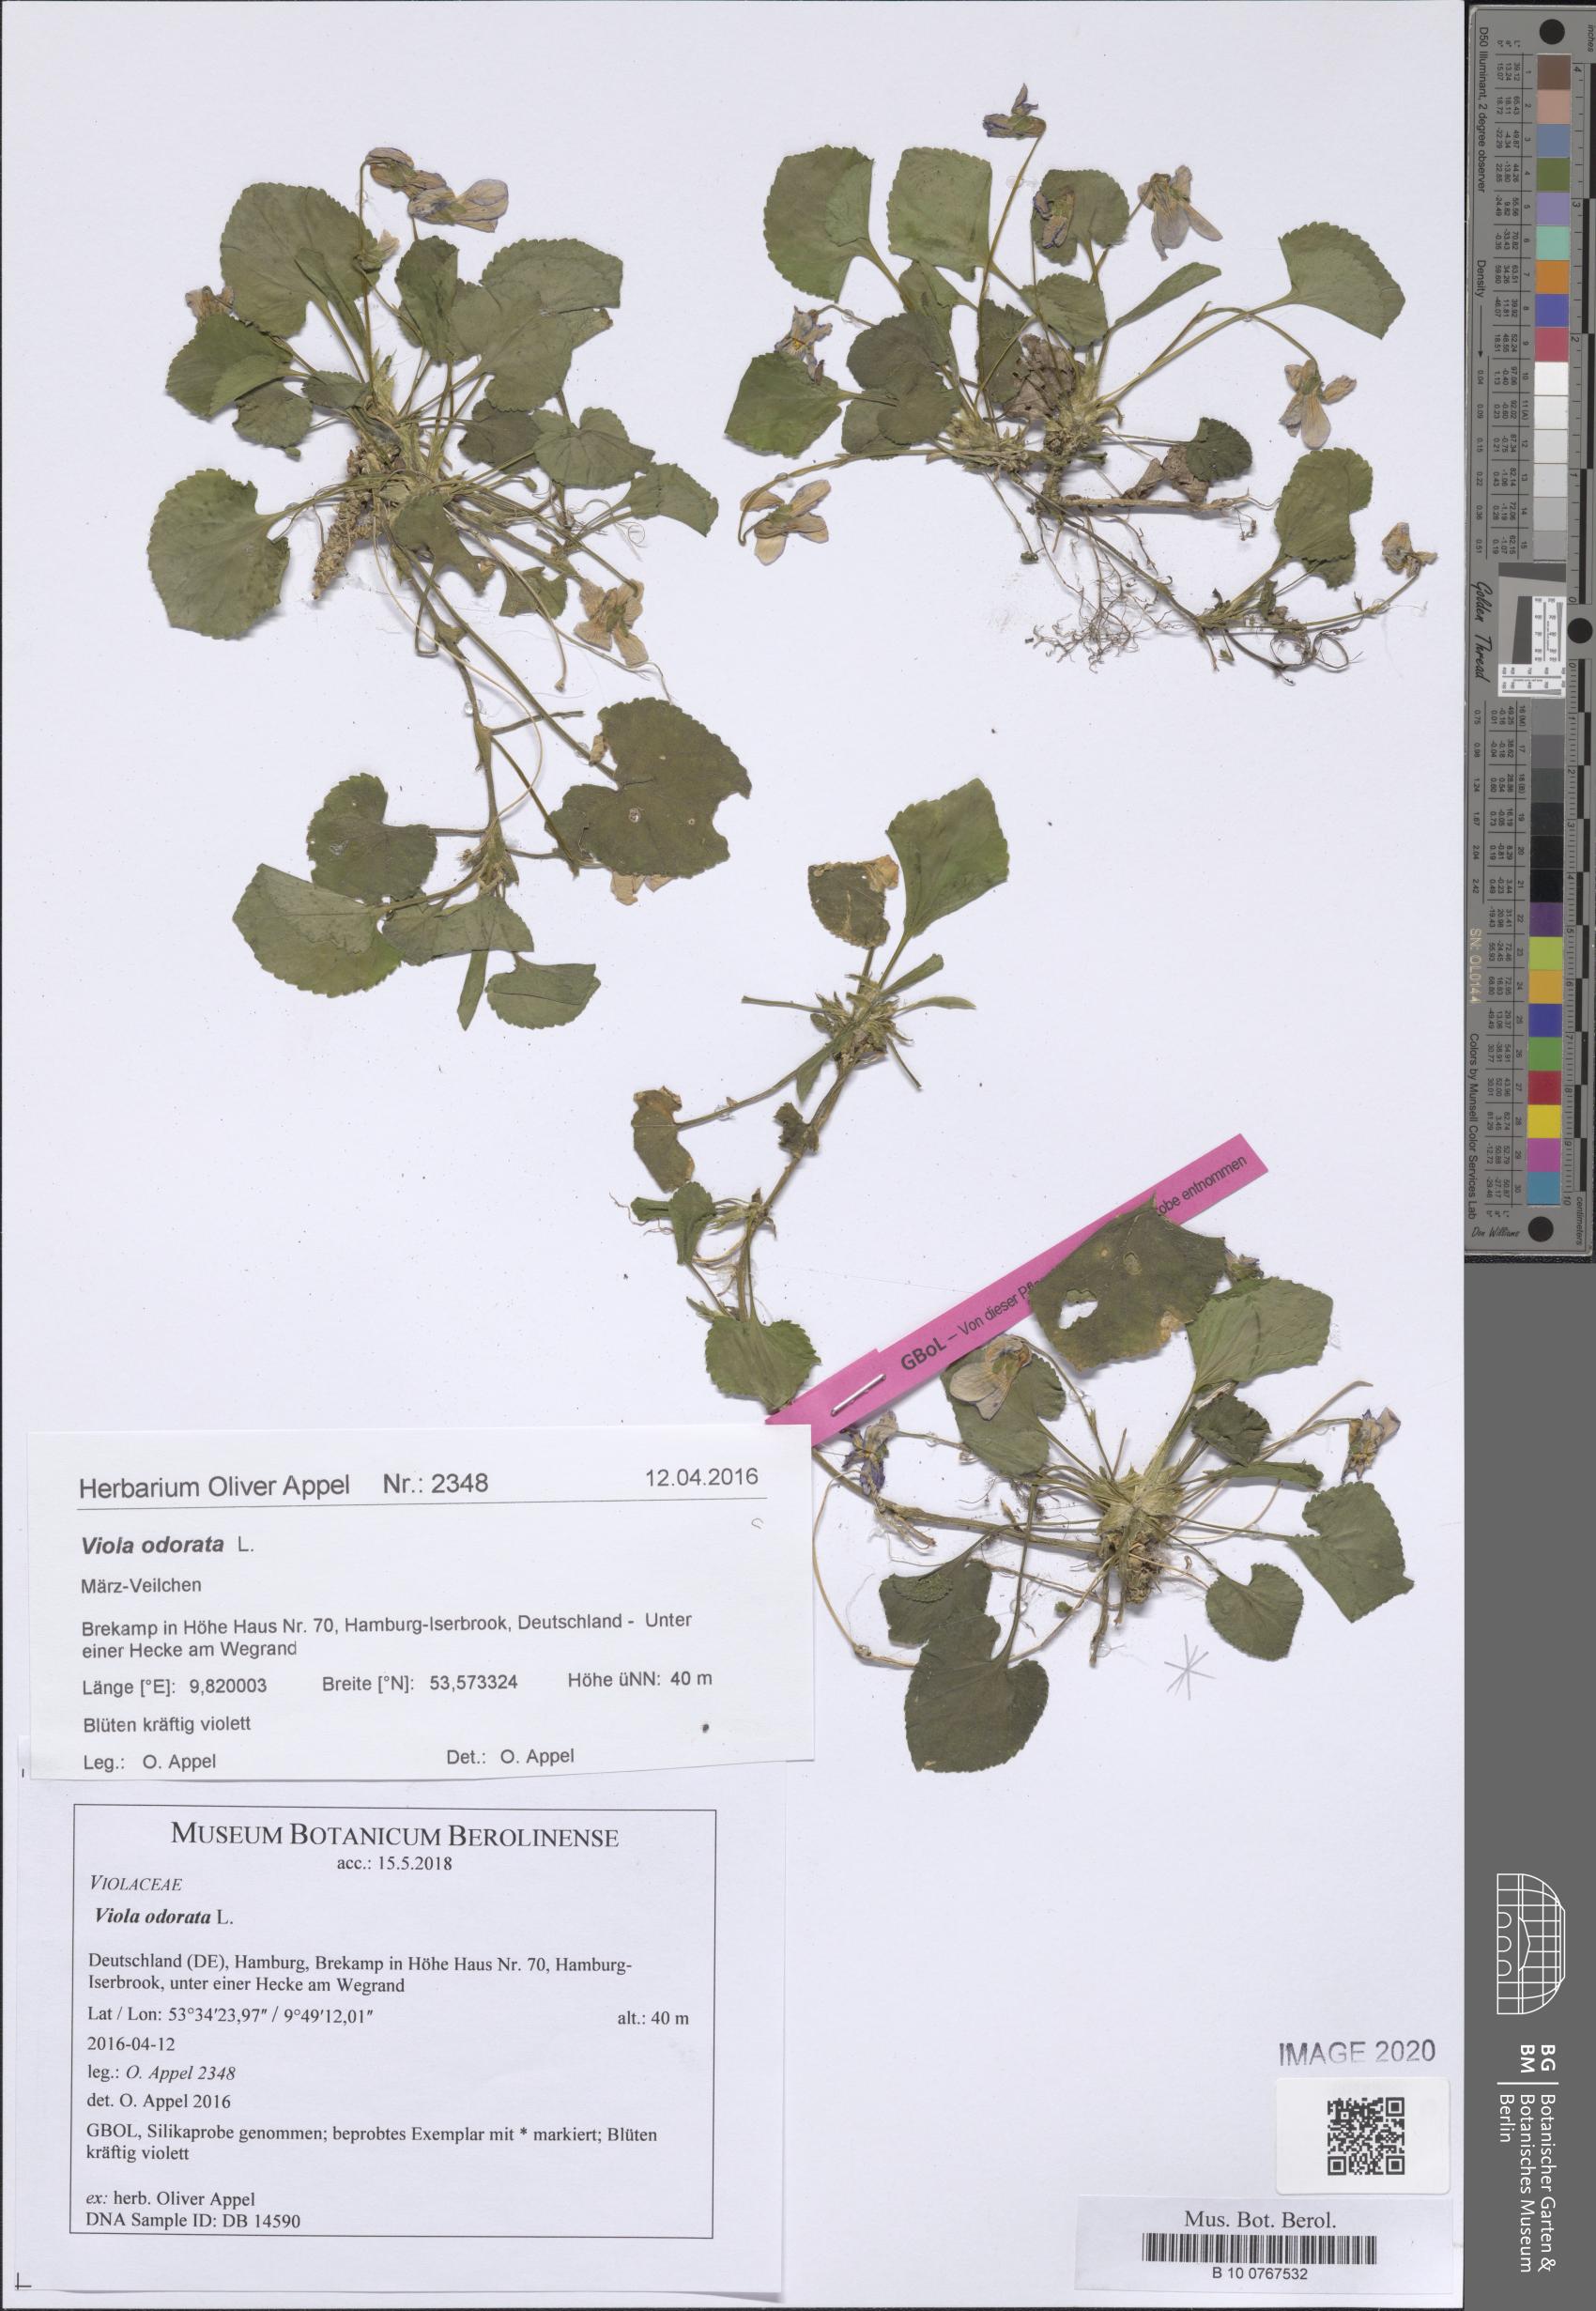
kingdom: Plantae
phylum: Tracheophyta
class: Magnoliopsida
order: Malpighiales
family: Violaceae
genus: Viola
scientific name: Viola odorata
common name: Sweet violet
